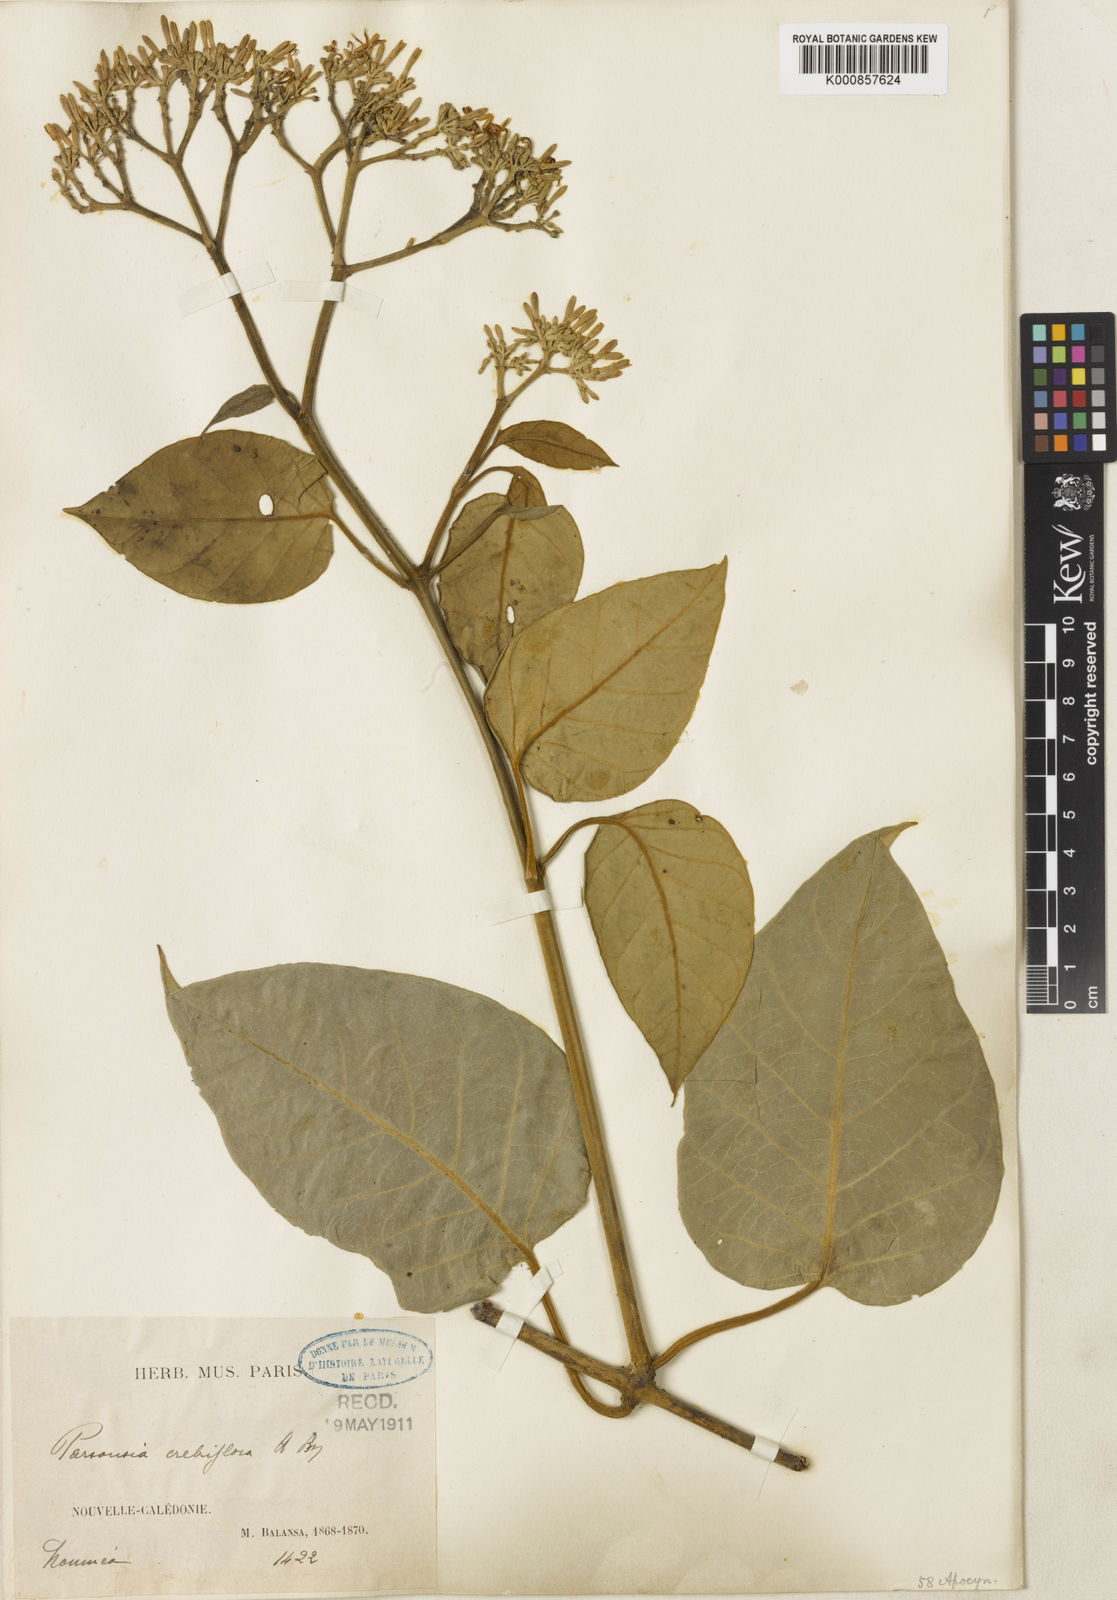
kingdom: Plantae
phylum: Tracheophyta
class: Magnoliopsida
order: Gentianales
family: Apocynaceae
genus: Parsonsia
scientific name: Parsonsia crebriflora
